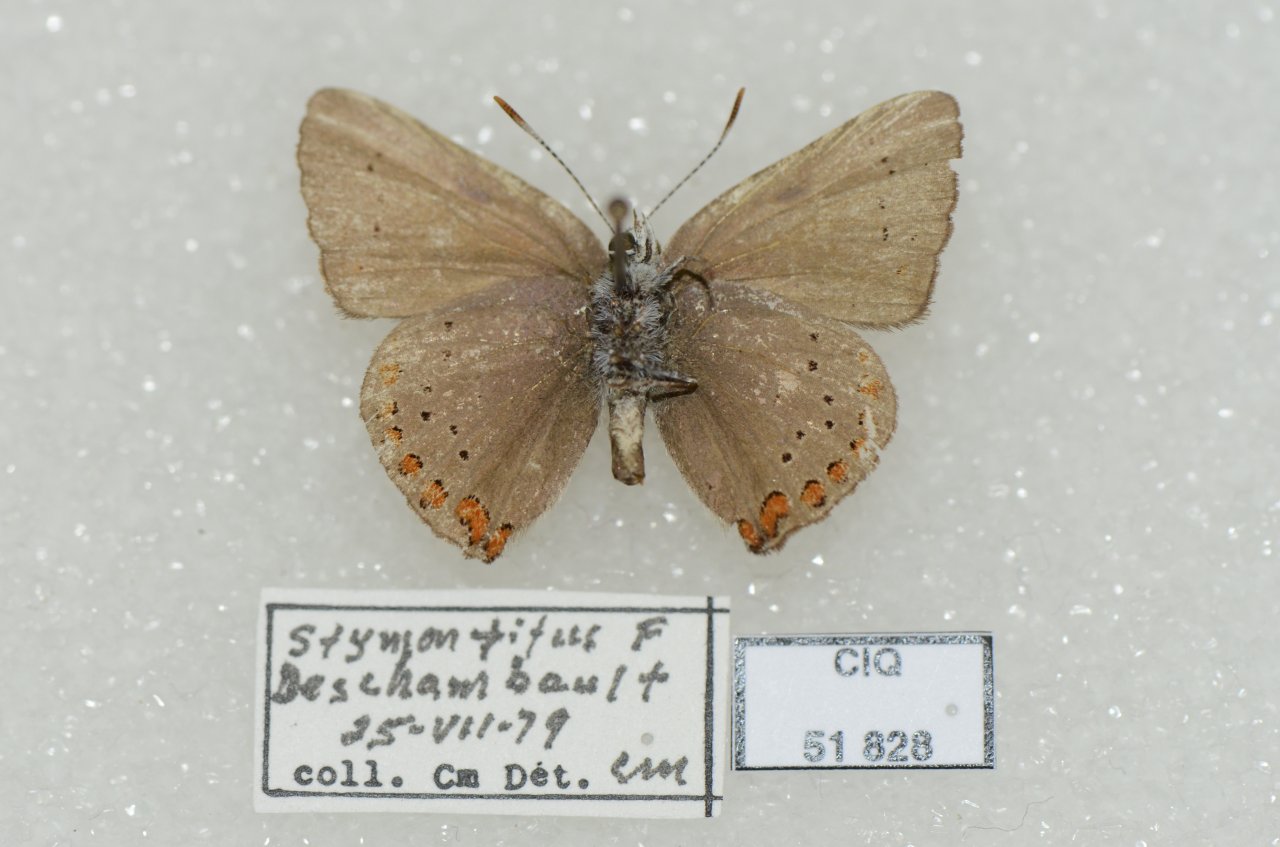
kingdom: Animalia
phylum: Arthropoda
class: Insecta
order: Lepidoptera
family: Lycaenidae
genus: Harkenclenus
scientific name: Harkenclenus titus
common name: Coral Hairstreak
